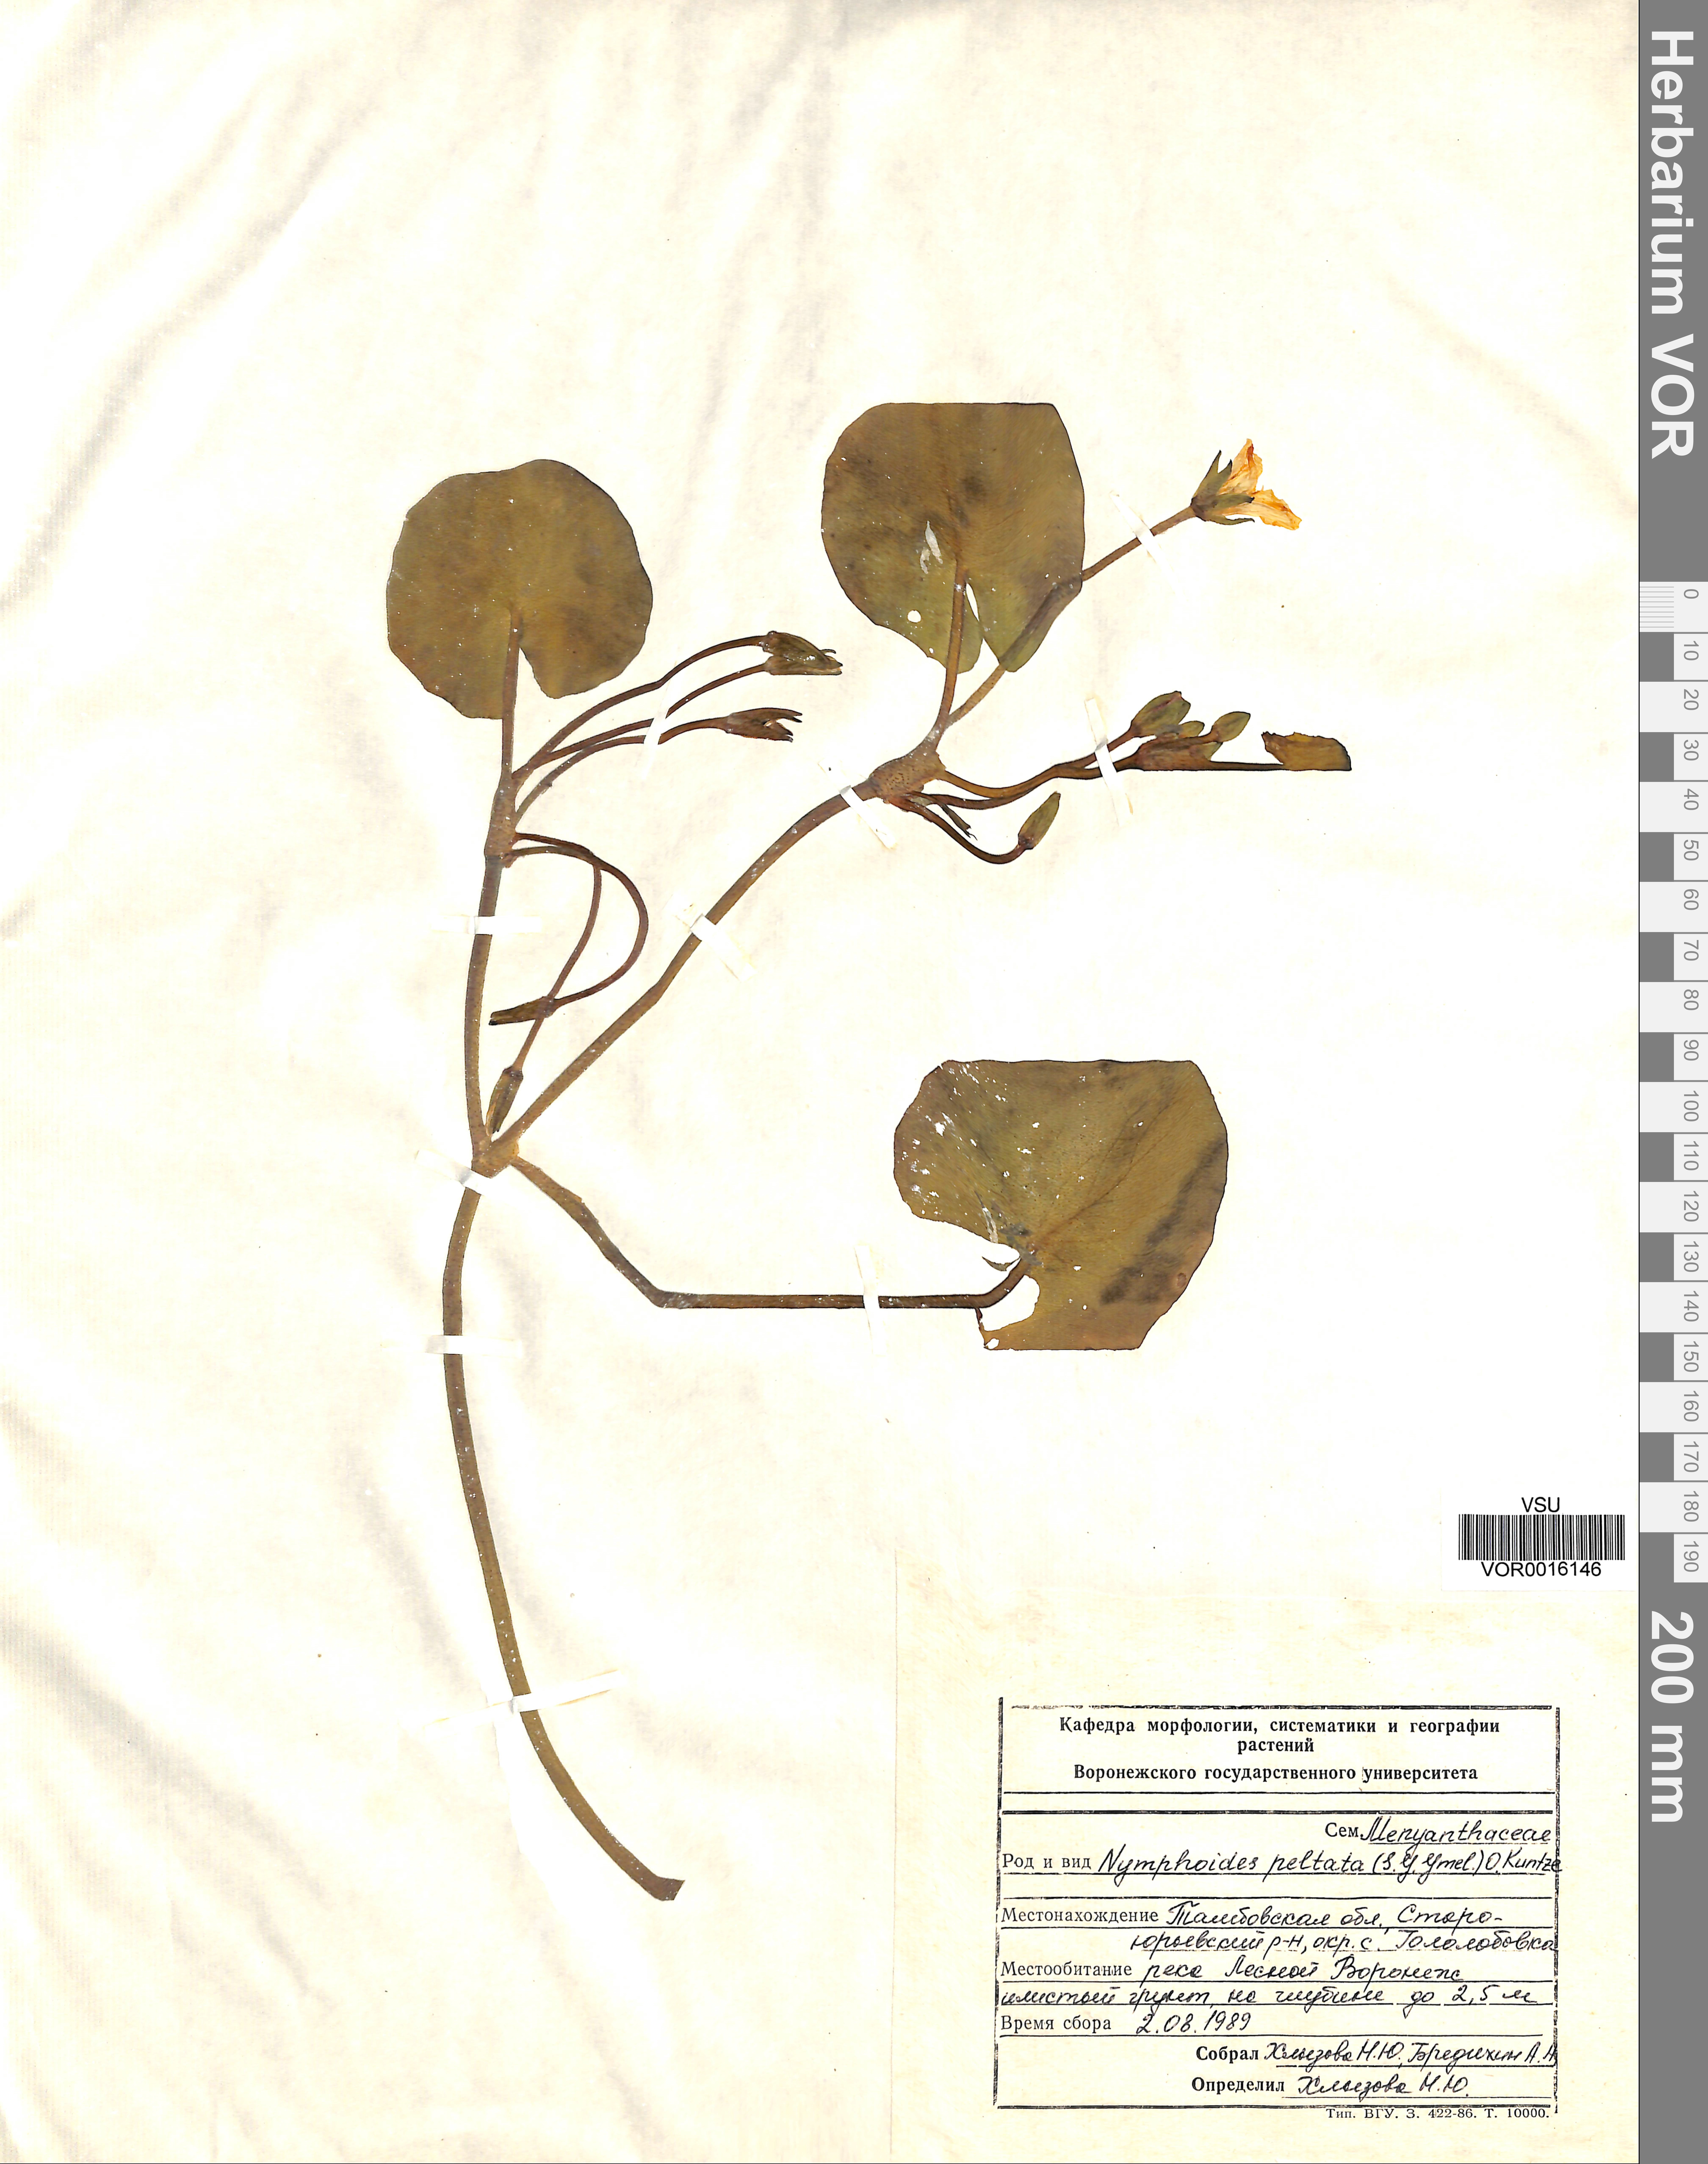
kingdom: Plantae
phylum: Tracheophyta
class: Magnoliopsida
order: Asterales
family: Menyanthaceae
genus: Nymphoides
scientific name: Nymphoides peltata
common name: Fringed water-lily
